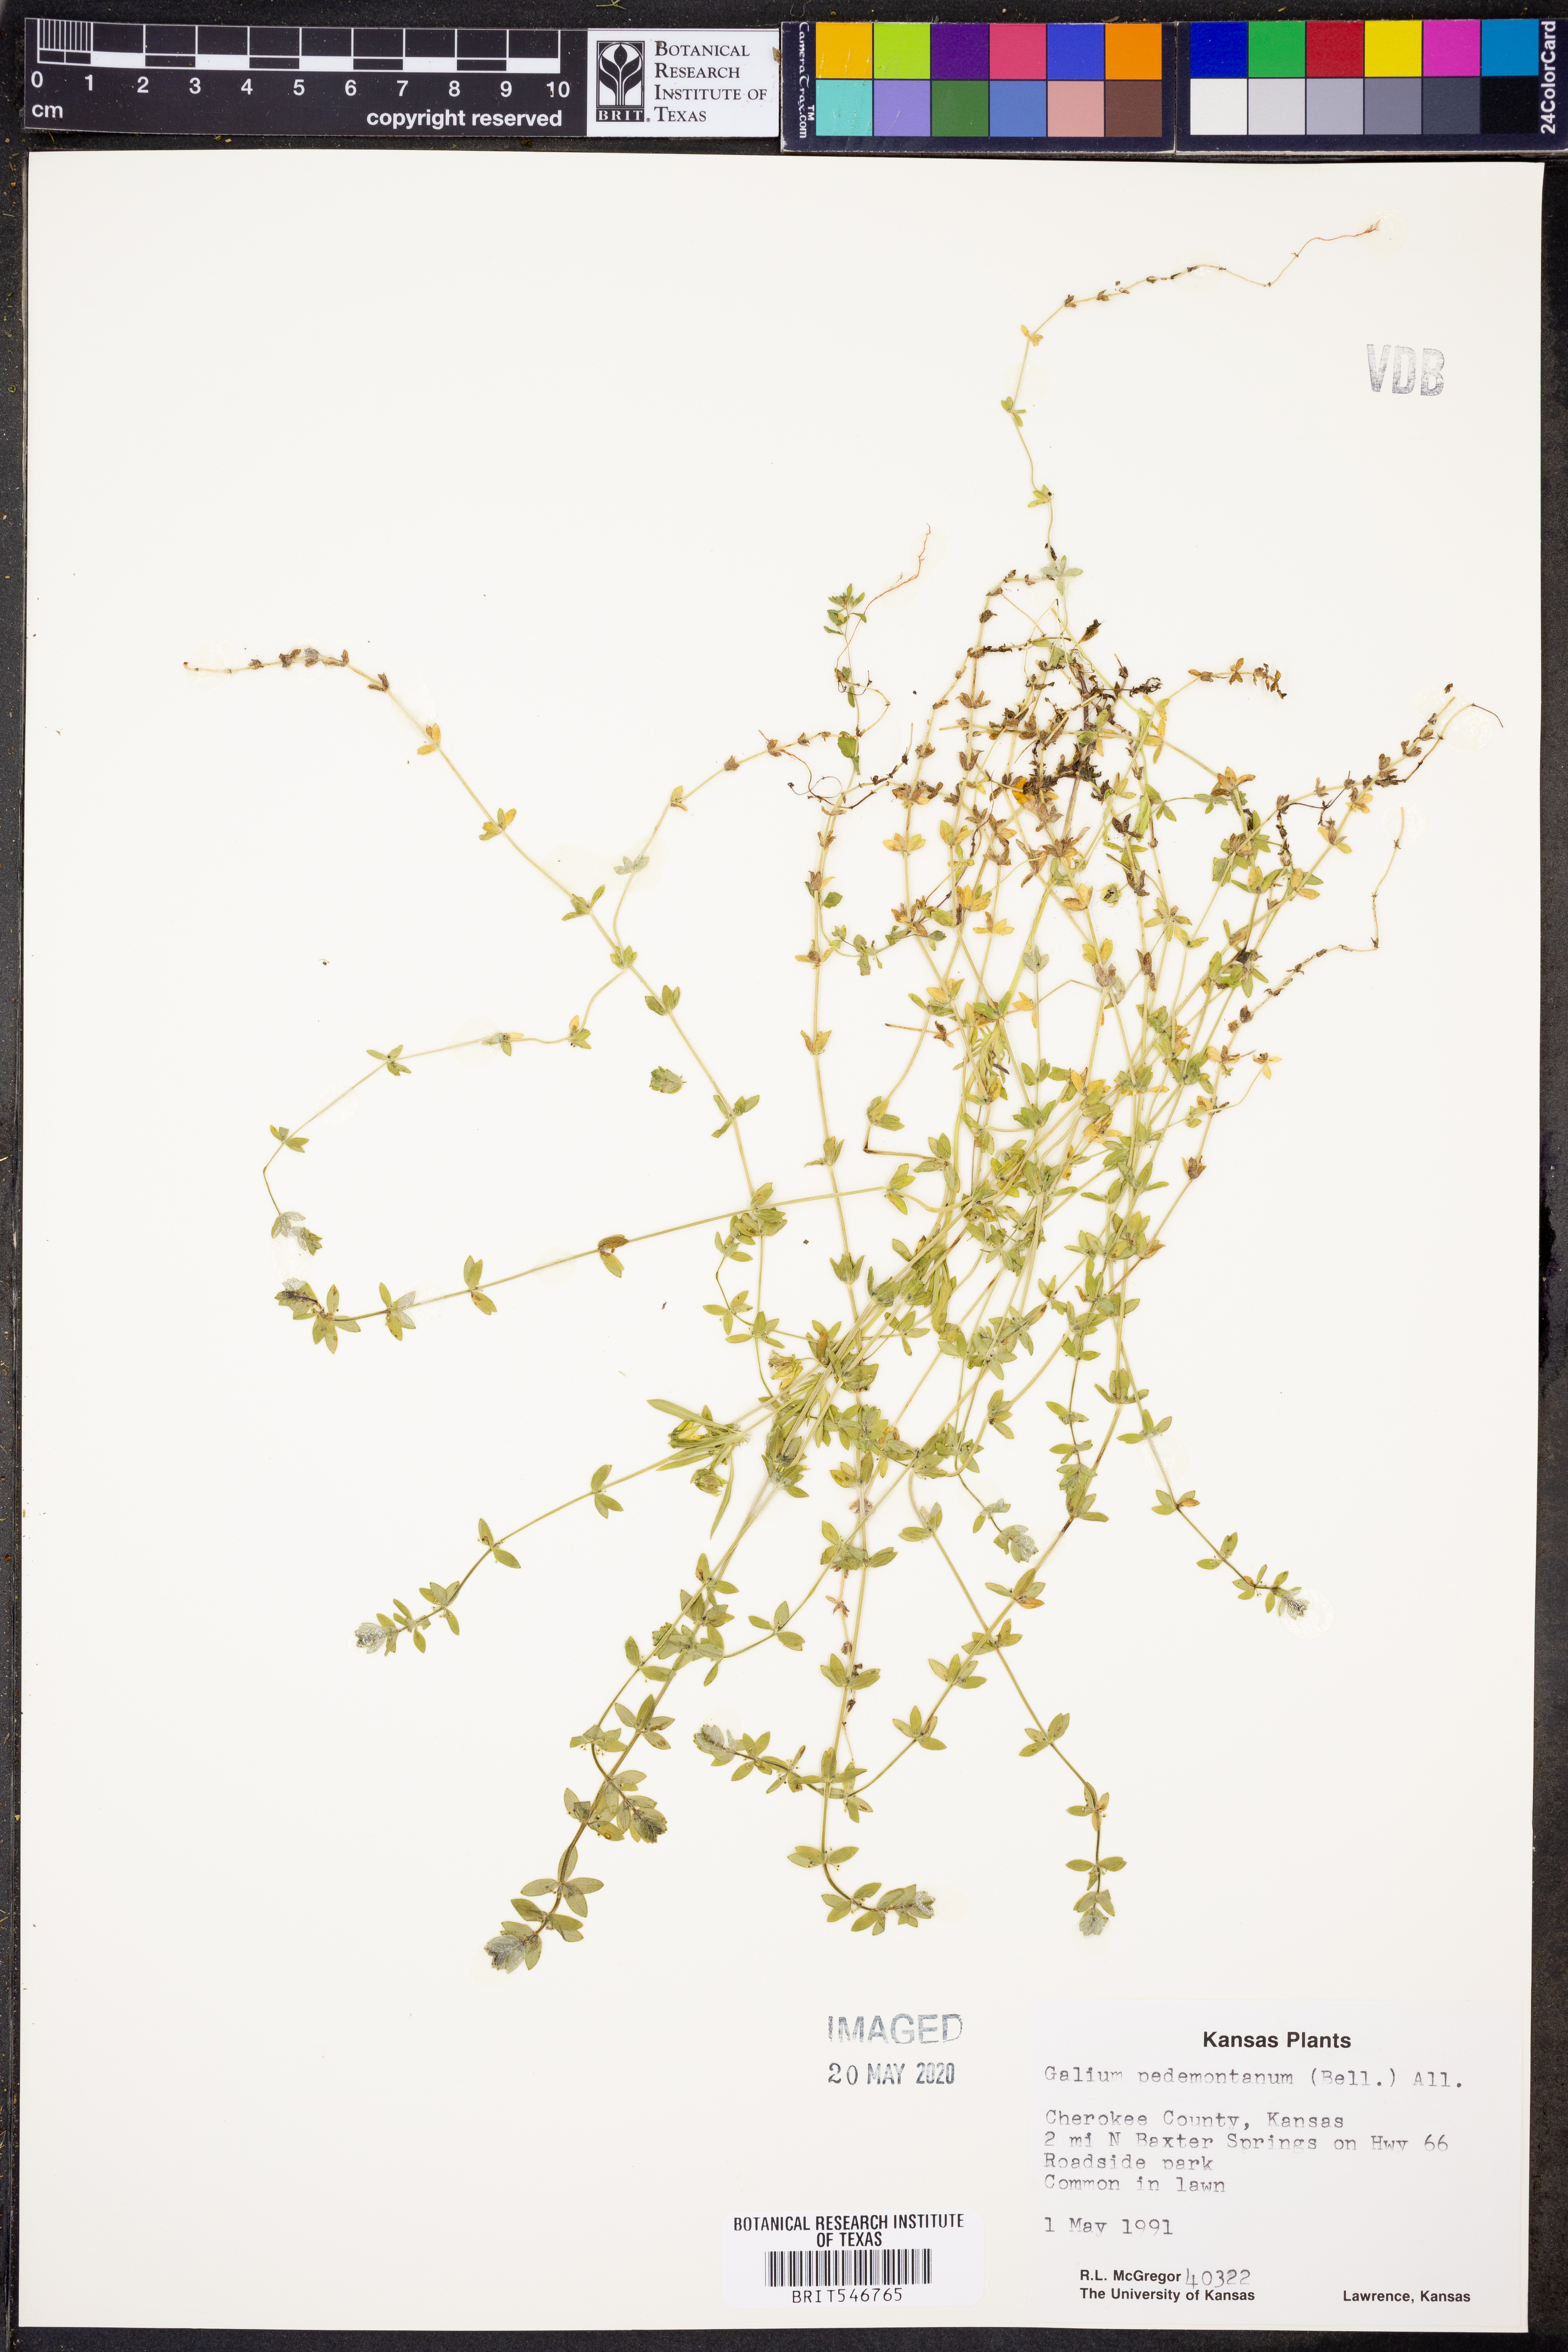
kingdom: Plantae
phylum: Tracheophyta
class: Magnoliopsida
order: Gentianales
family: Rubiaceae
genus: Cruciata
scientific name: Cruciata pedemontana
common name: Piedmont bedstraw
